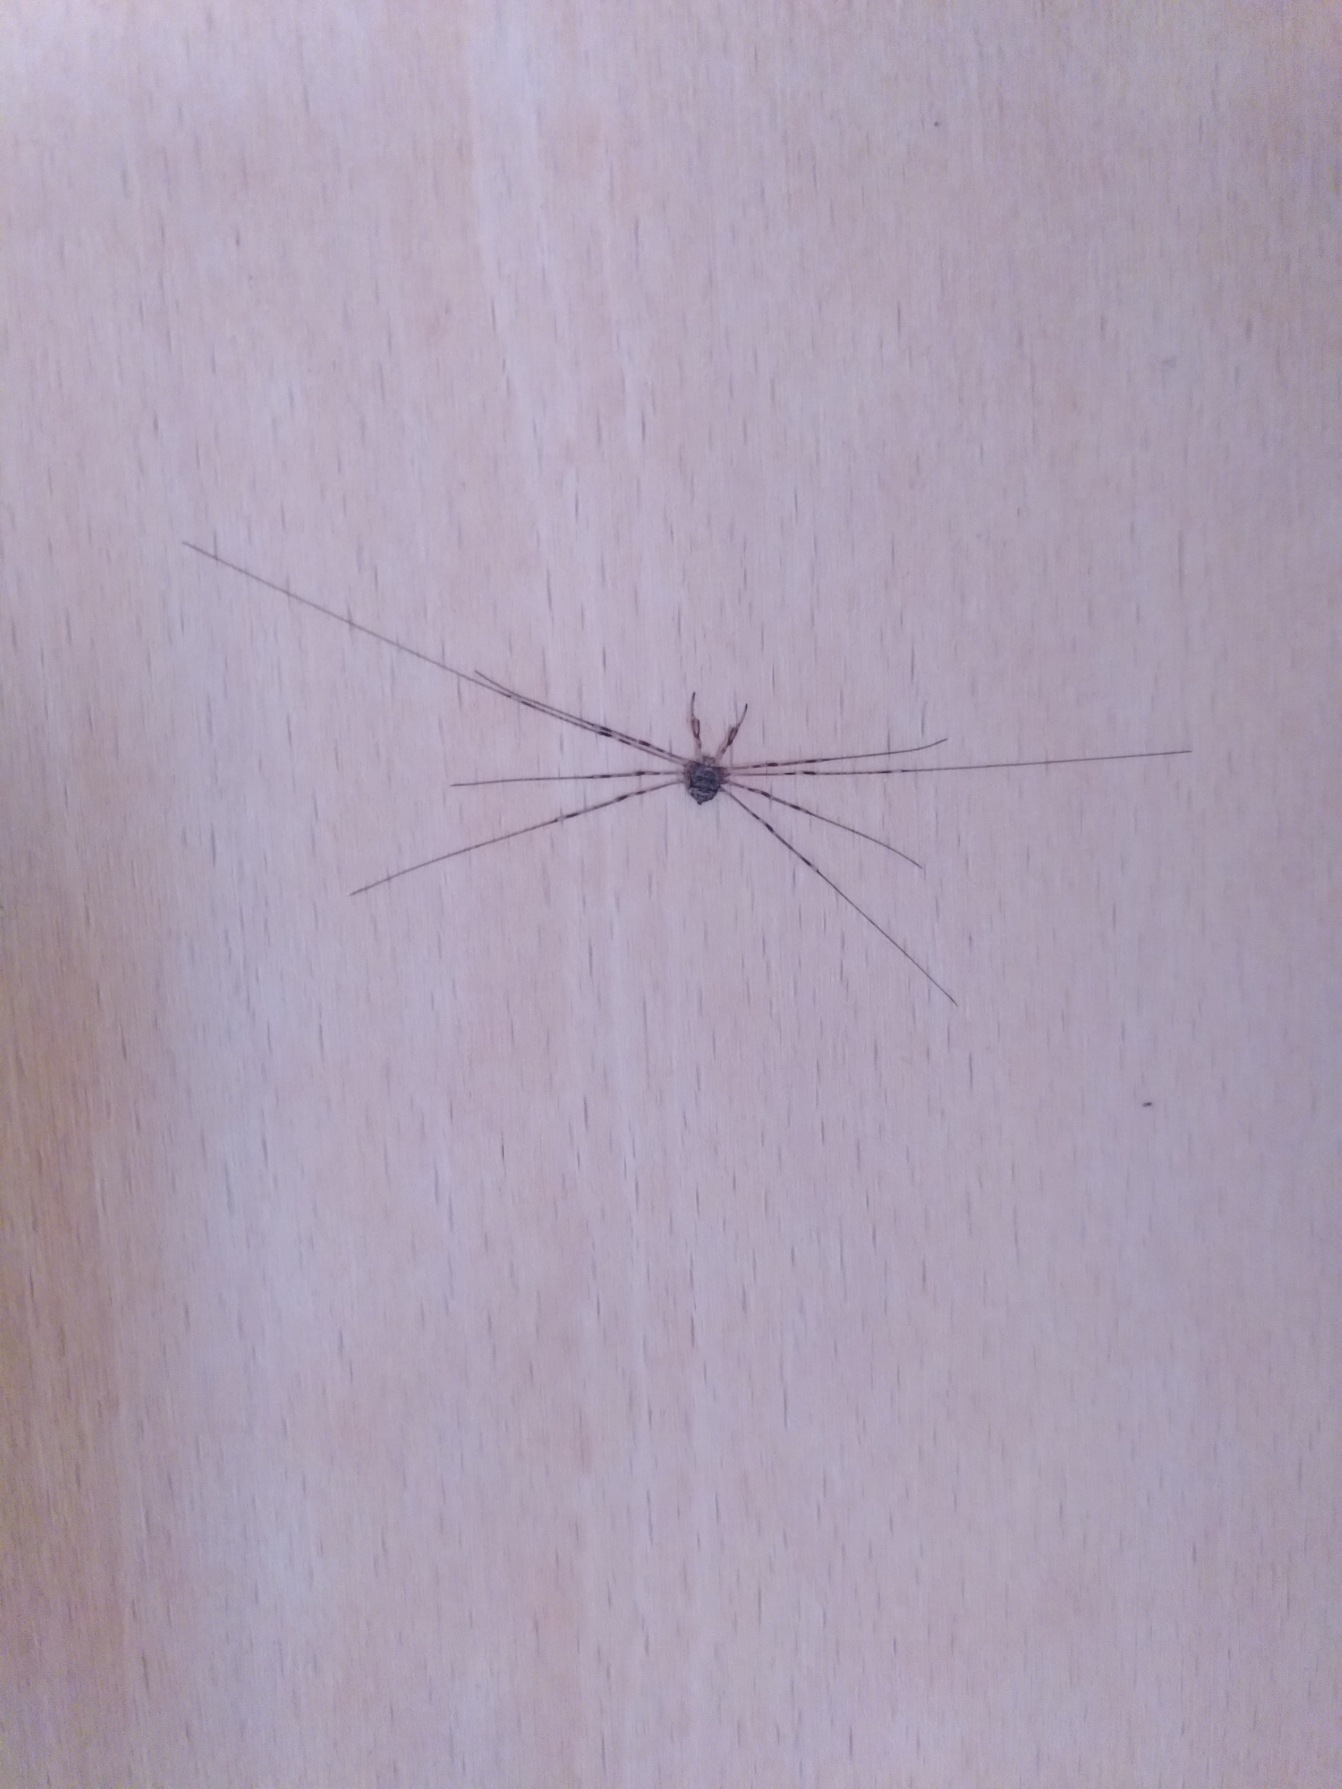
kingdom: Animalia
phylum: Arthropoda
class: Arachnida
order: Opiliones
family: Phalangiidae
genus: Dicranopalpus
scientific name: Dicranopalpus ramosus
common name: Gaffelmejer
